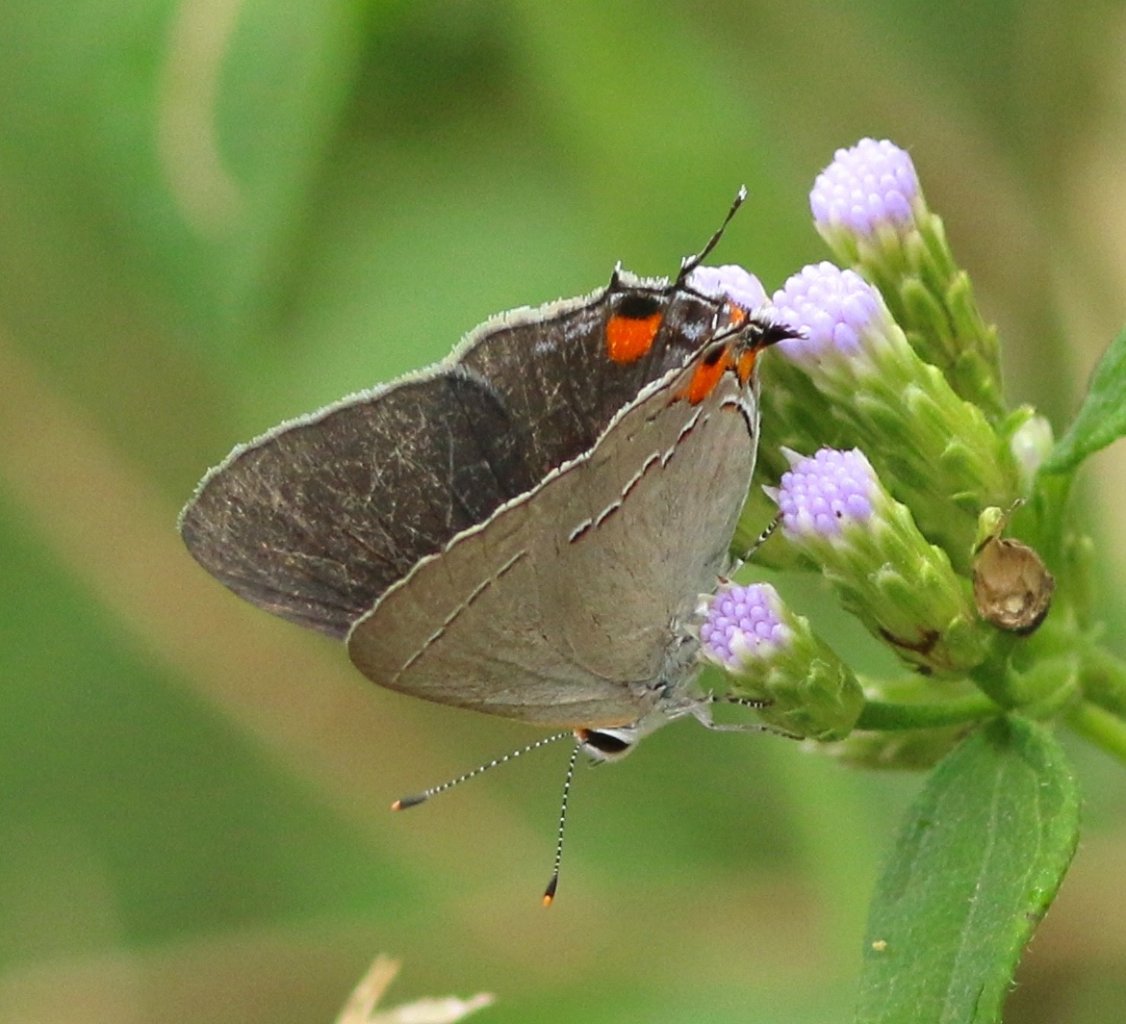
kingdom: Animalia
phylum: Arthropoda
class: Insecta
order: Lepidoptera
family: Lycaenidae
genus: Strymon
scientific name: Strymon melinus
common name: Gray Hairstreak
